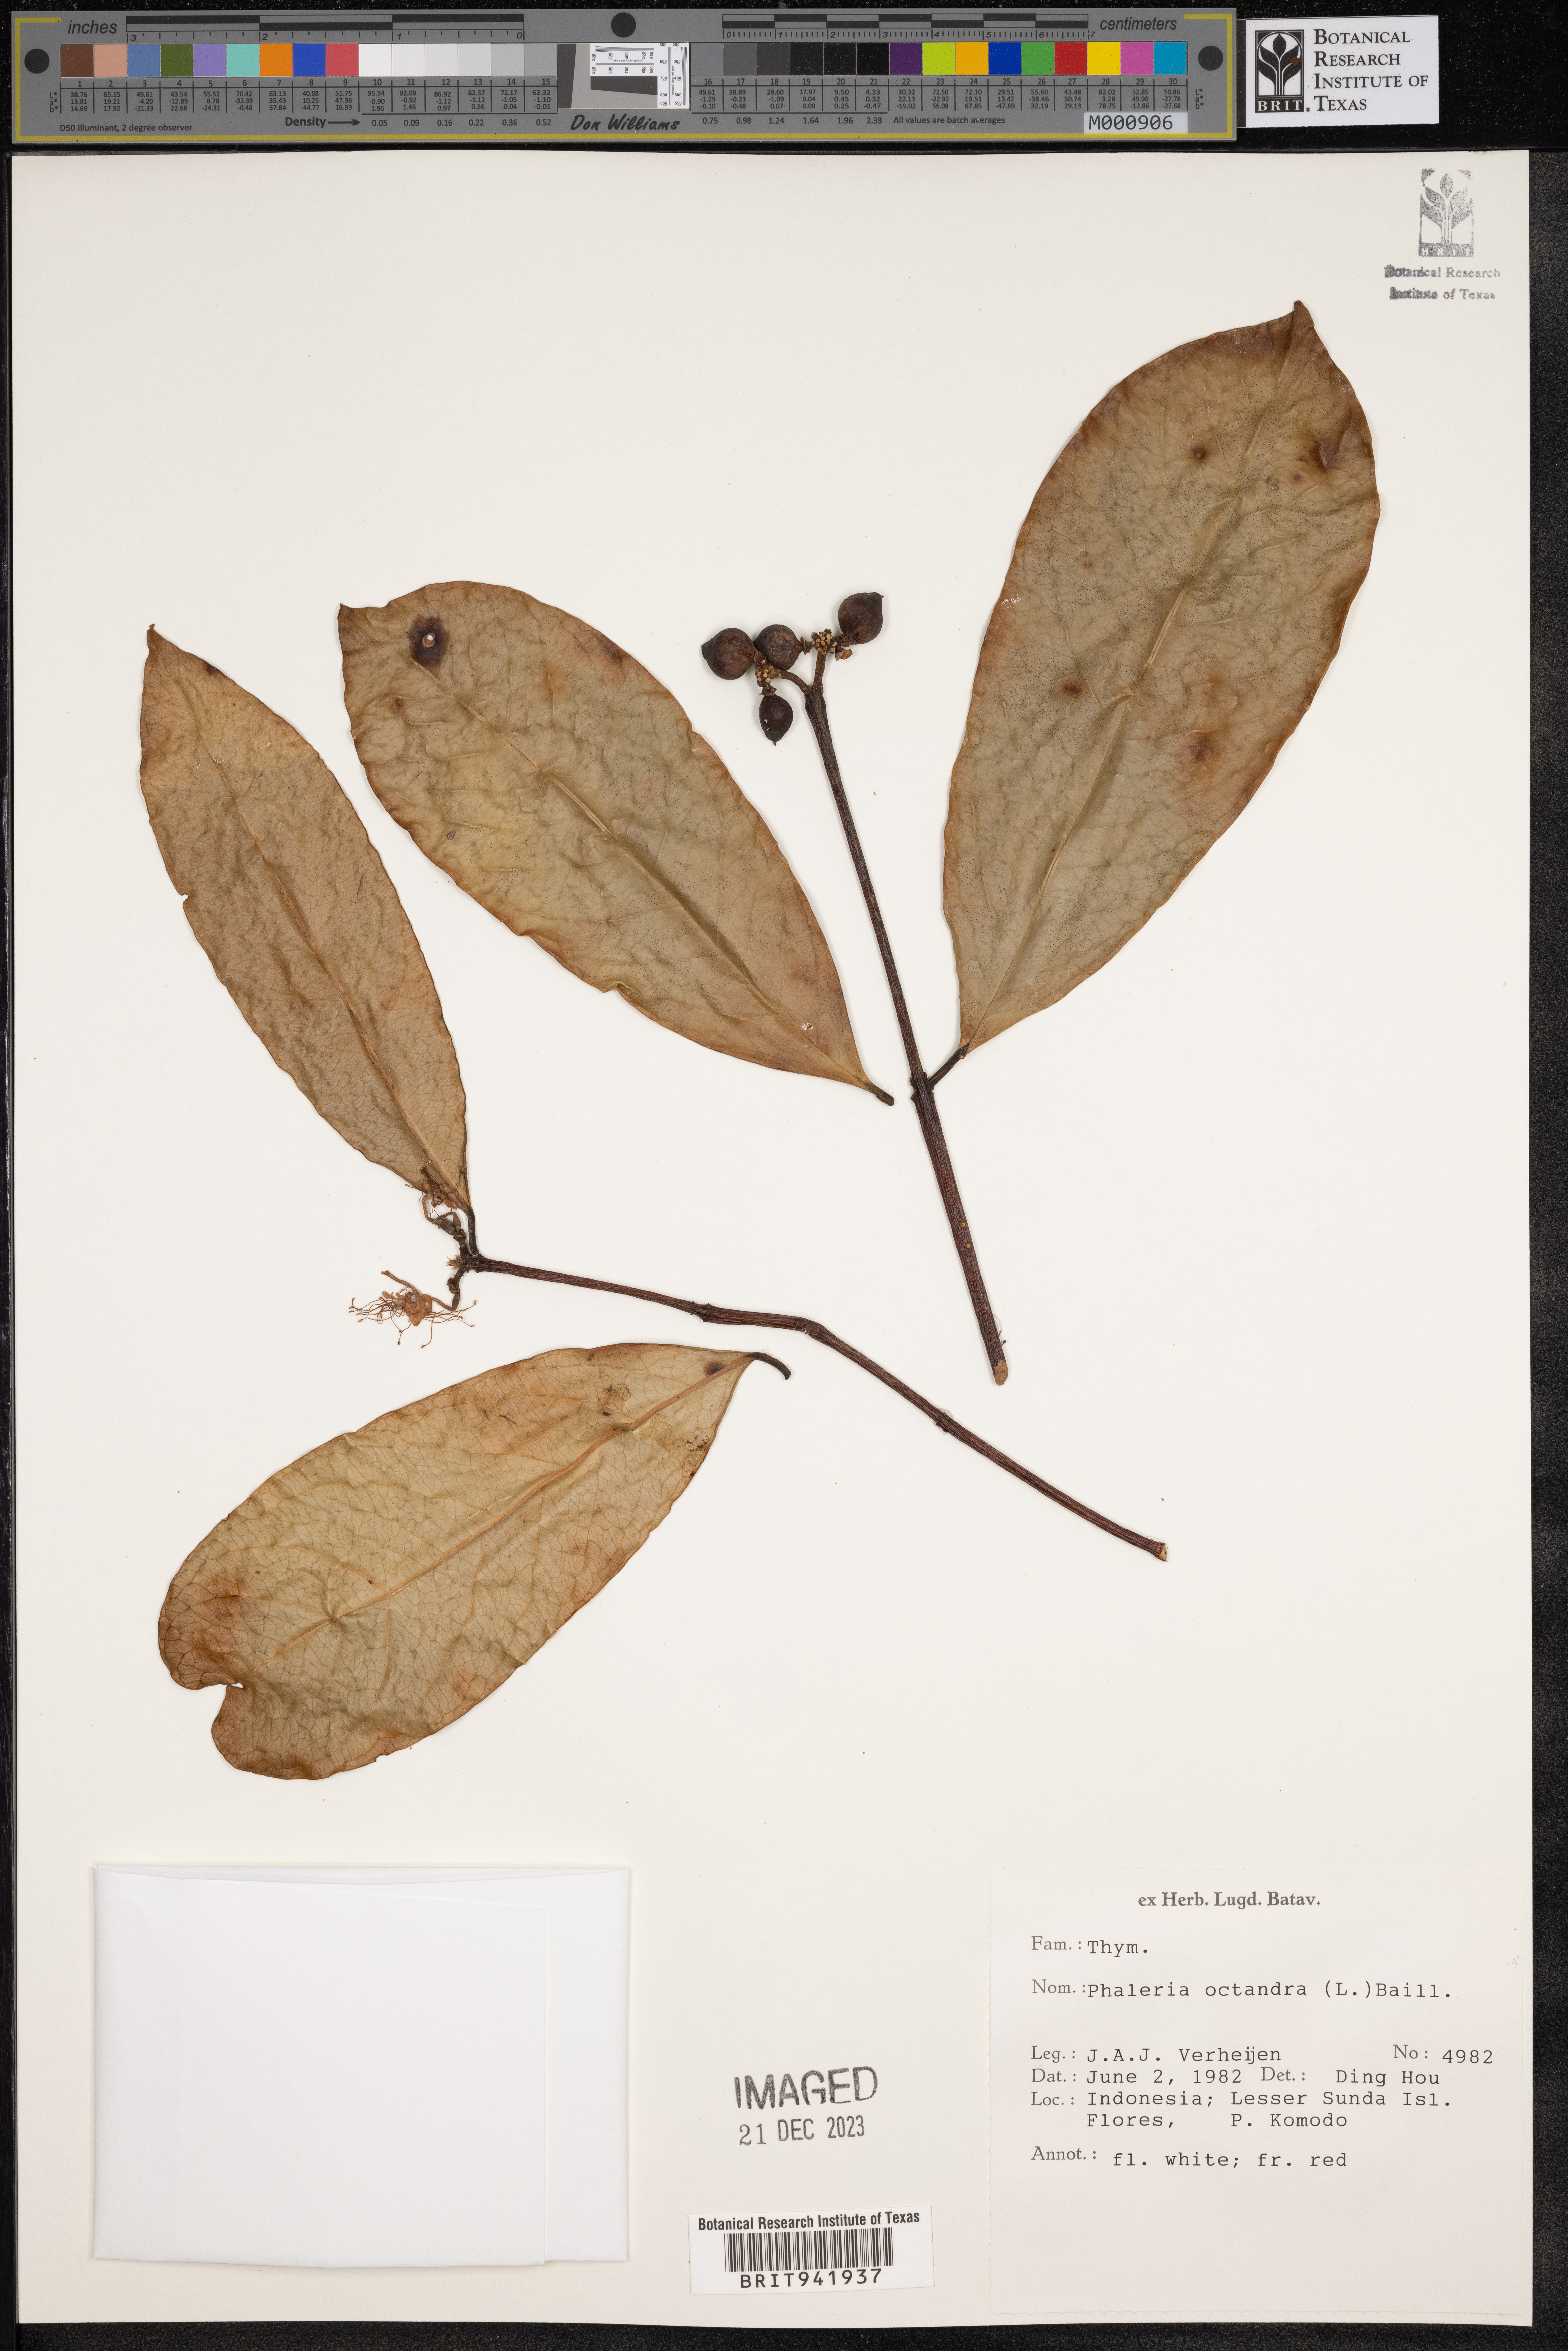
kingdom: Plantae
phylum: Tracheophyta
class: Magnoliopsida
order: Malvales
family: Thymelaeaceae
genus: Phaleria
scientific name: Phaleria
